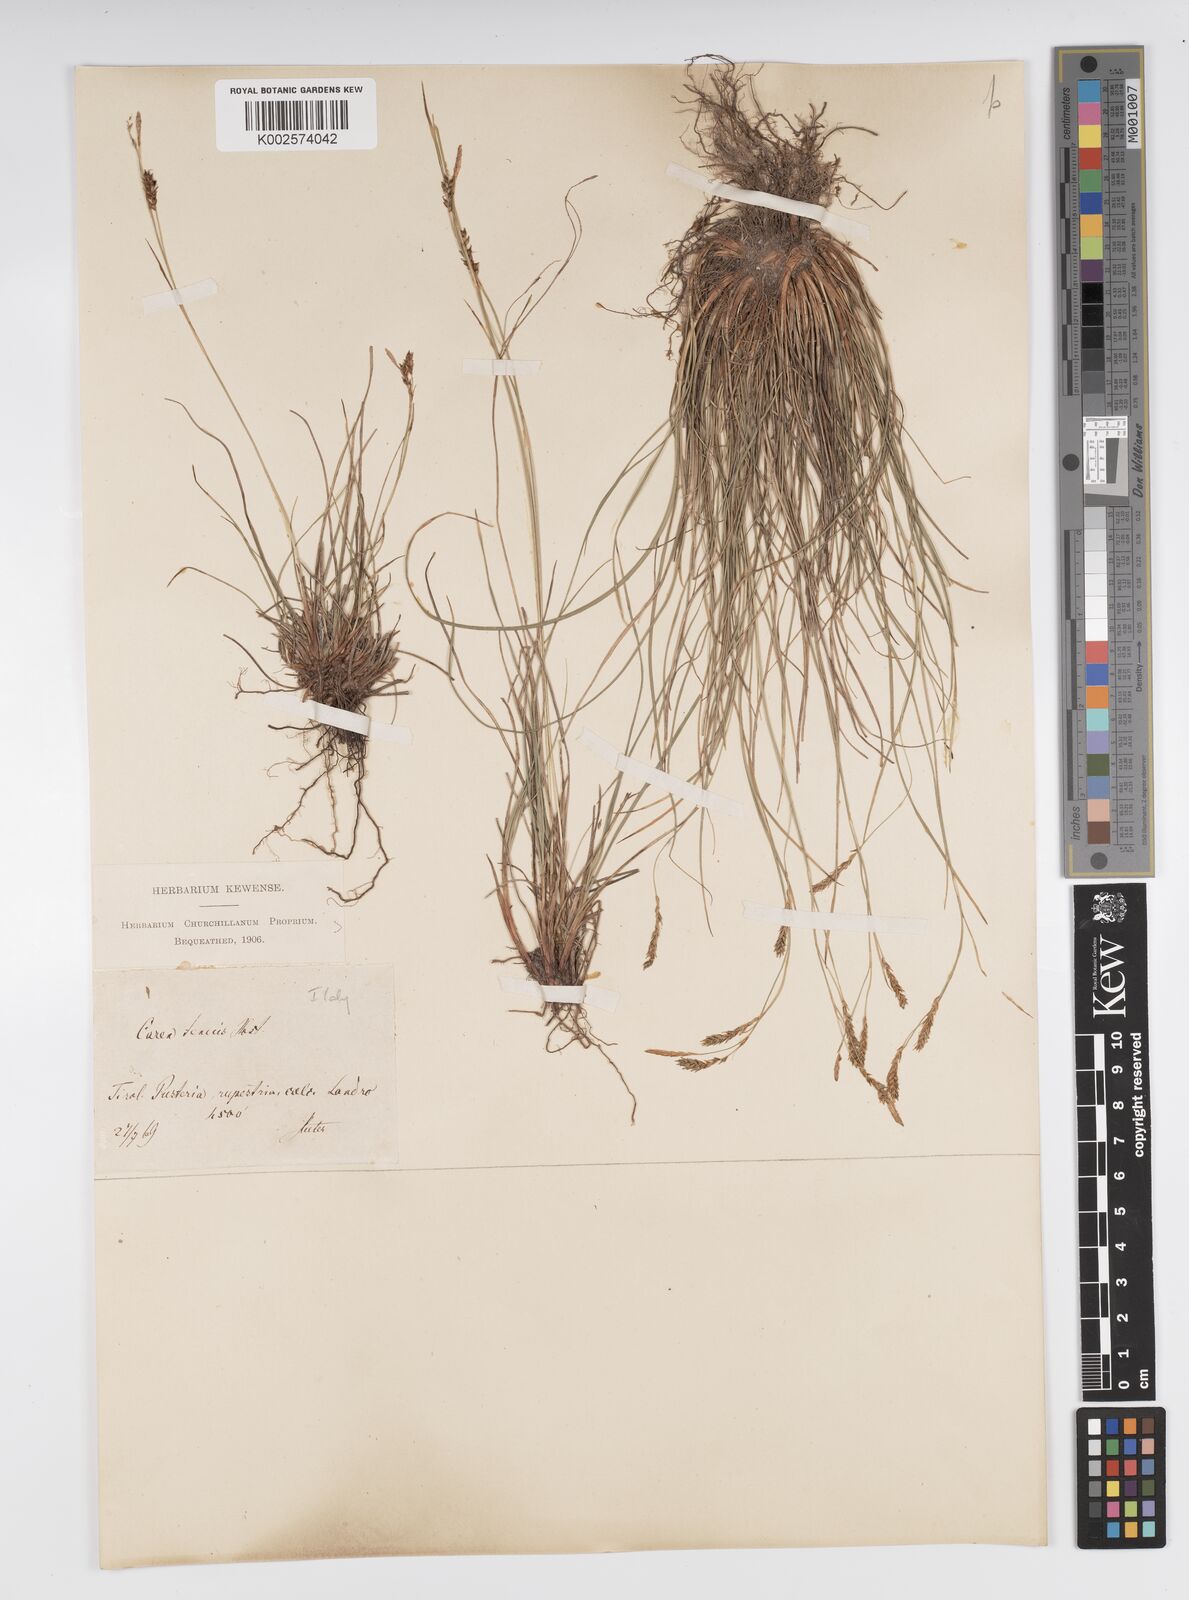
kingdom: Plantae
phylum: Tracheophyta
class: Liliopsida
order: Poales
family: Cyperaceae
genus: Carex
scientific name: Carex brachystachys
